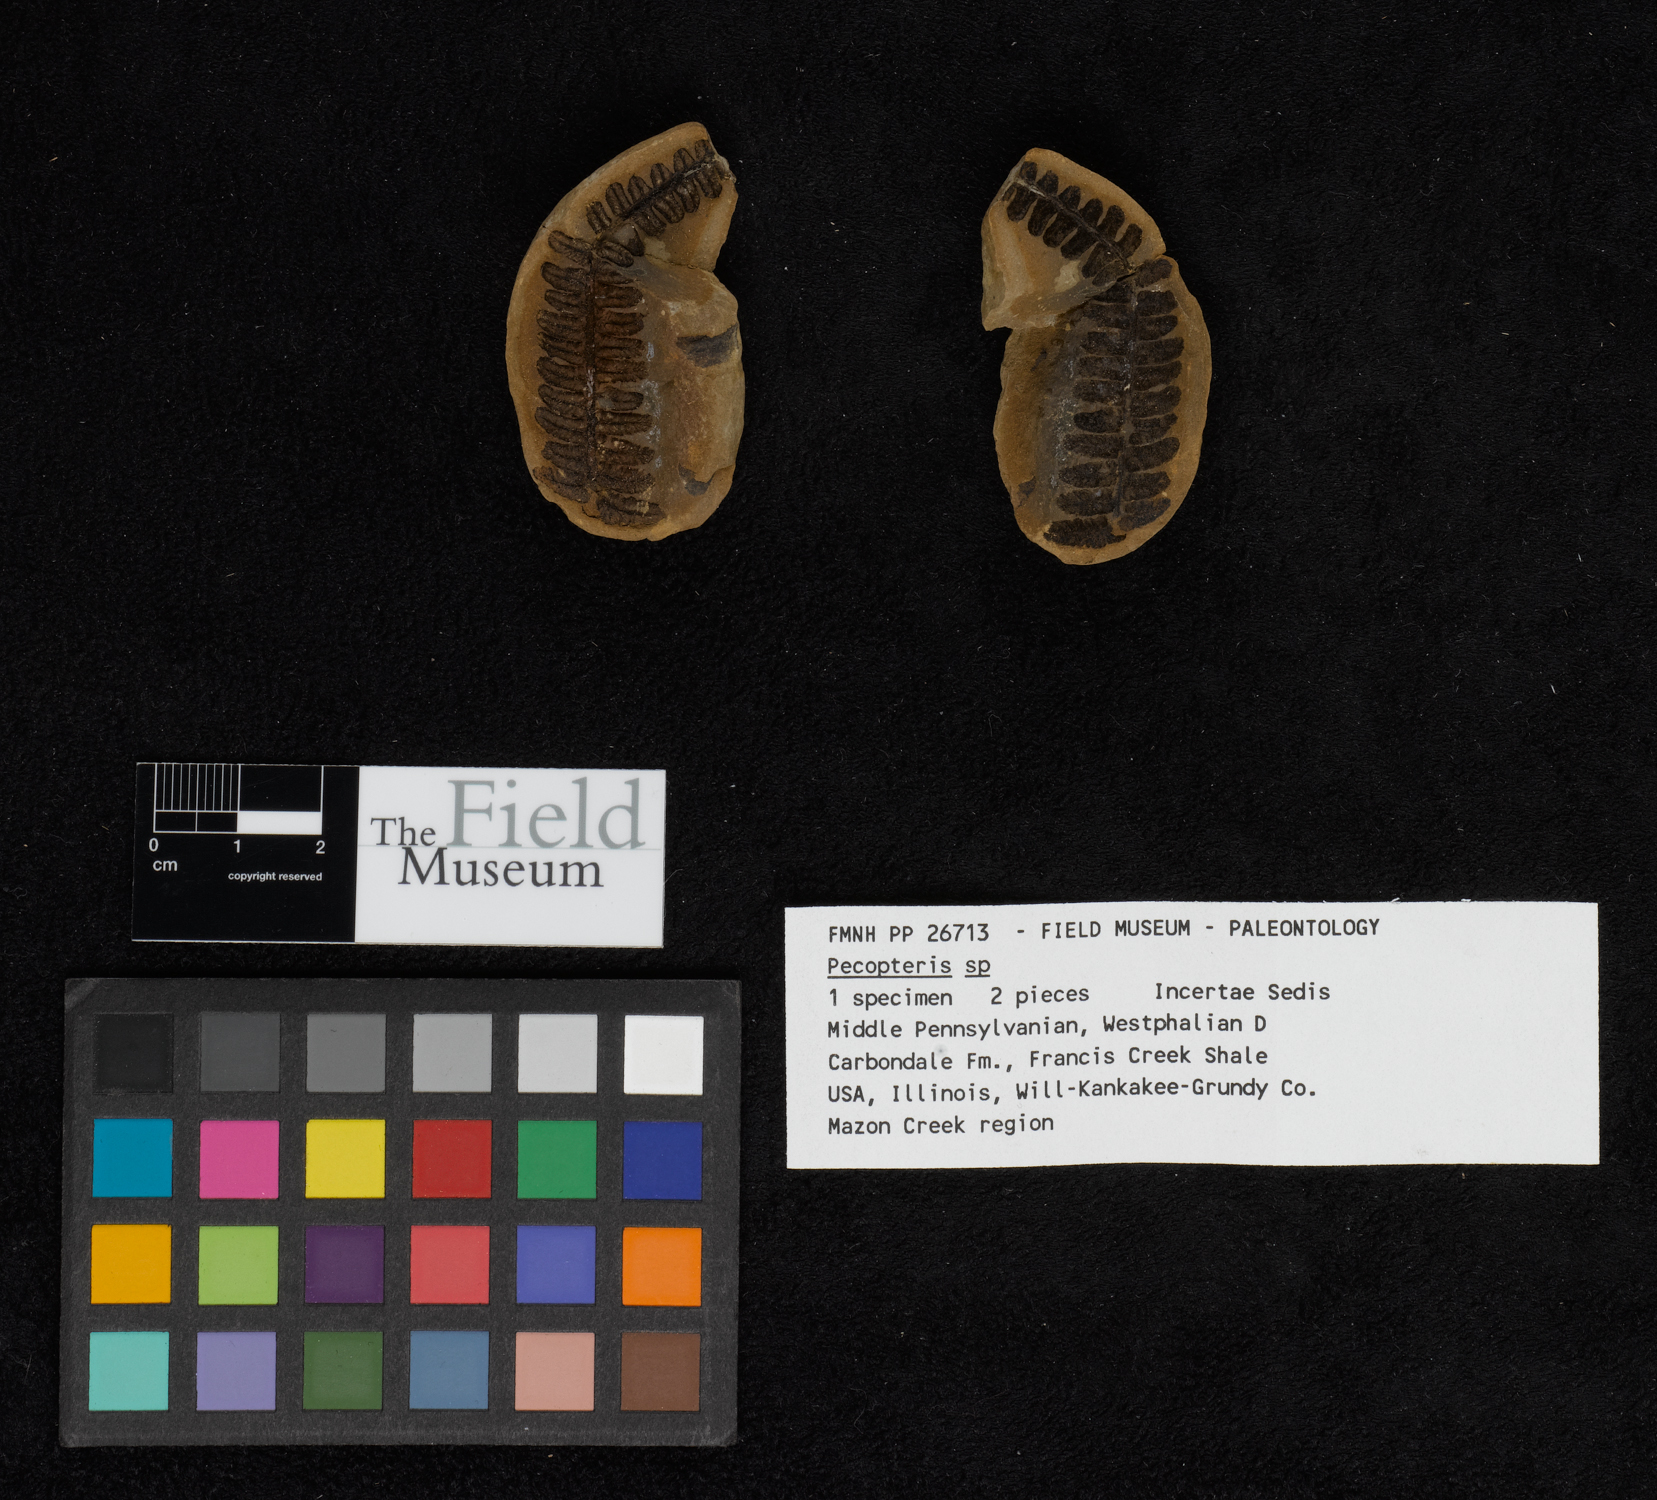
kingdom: Plantae
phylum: Tracheophyta
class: Polypodiopsida
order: Marattiales
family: Asterothecaceae
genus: Pecopteris
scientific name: Pecopteris
